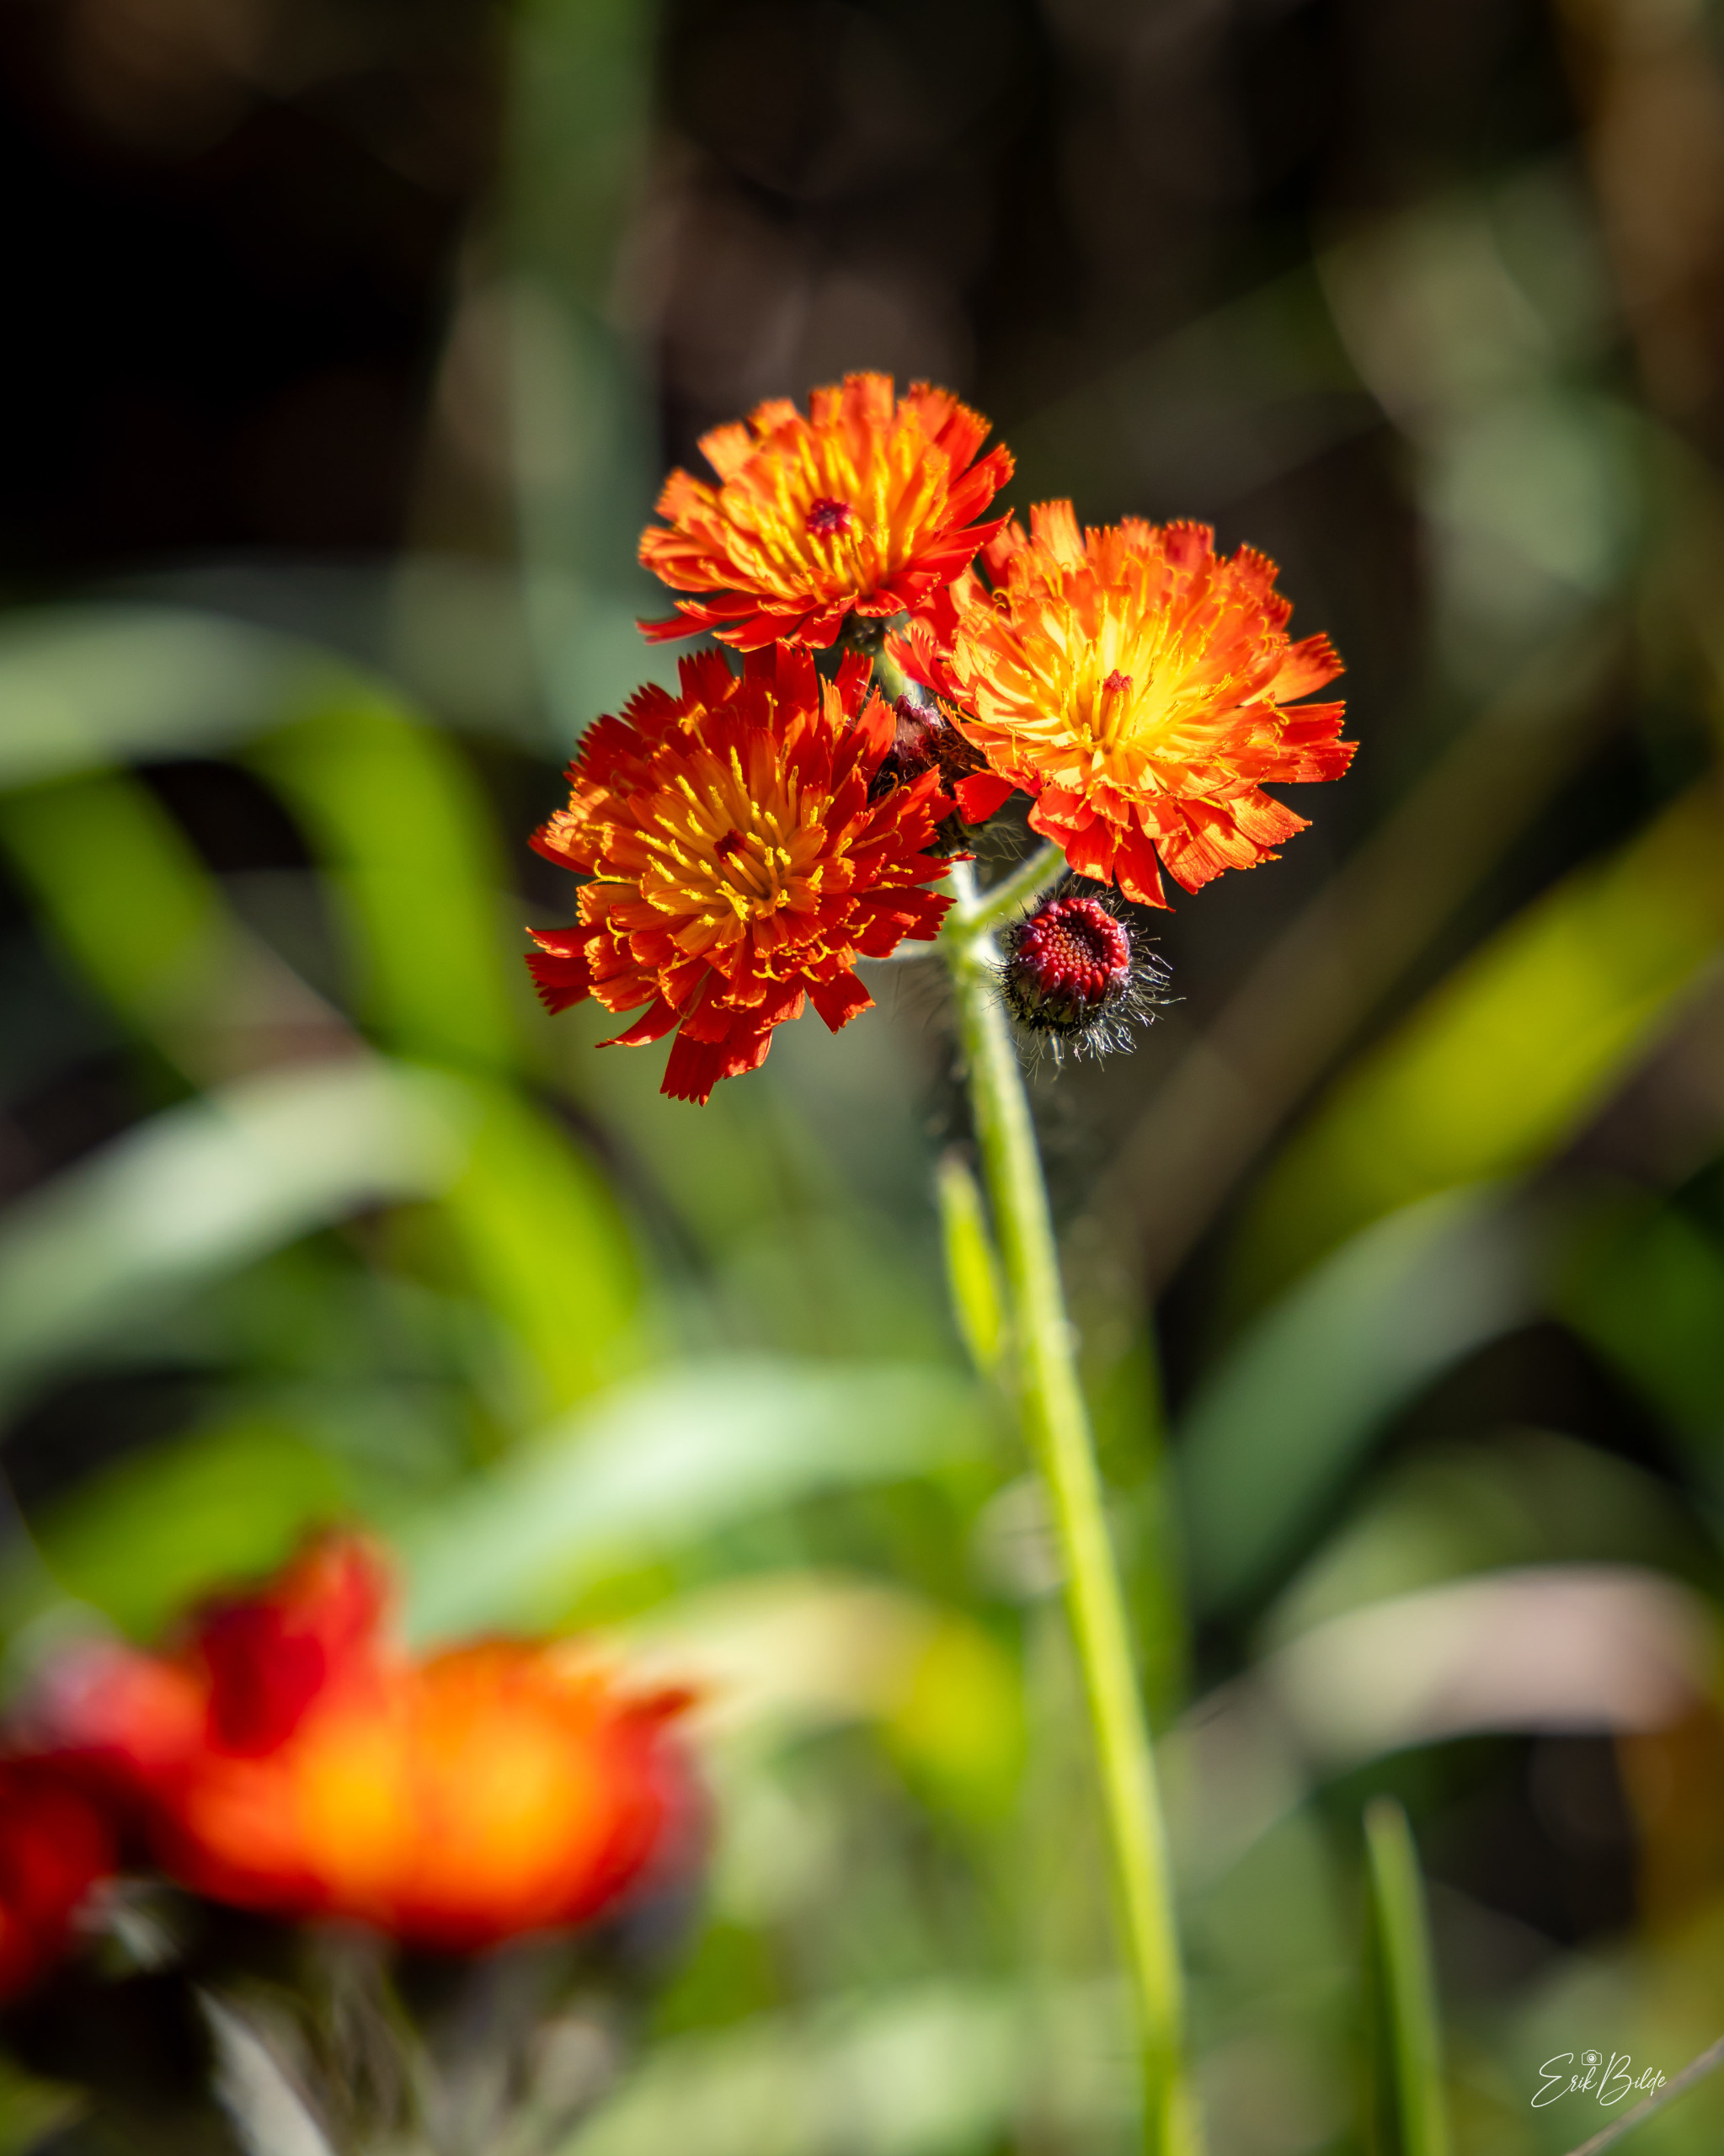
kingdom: Plantae
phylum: Tracheophyta
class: Magnoliopsida
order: Asterales
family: Asteraceae
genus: Pilosella
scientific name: Pilosella aurantiaca
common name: Pomerans-høgeurt
